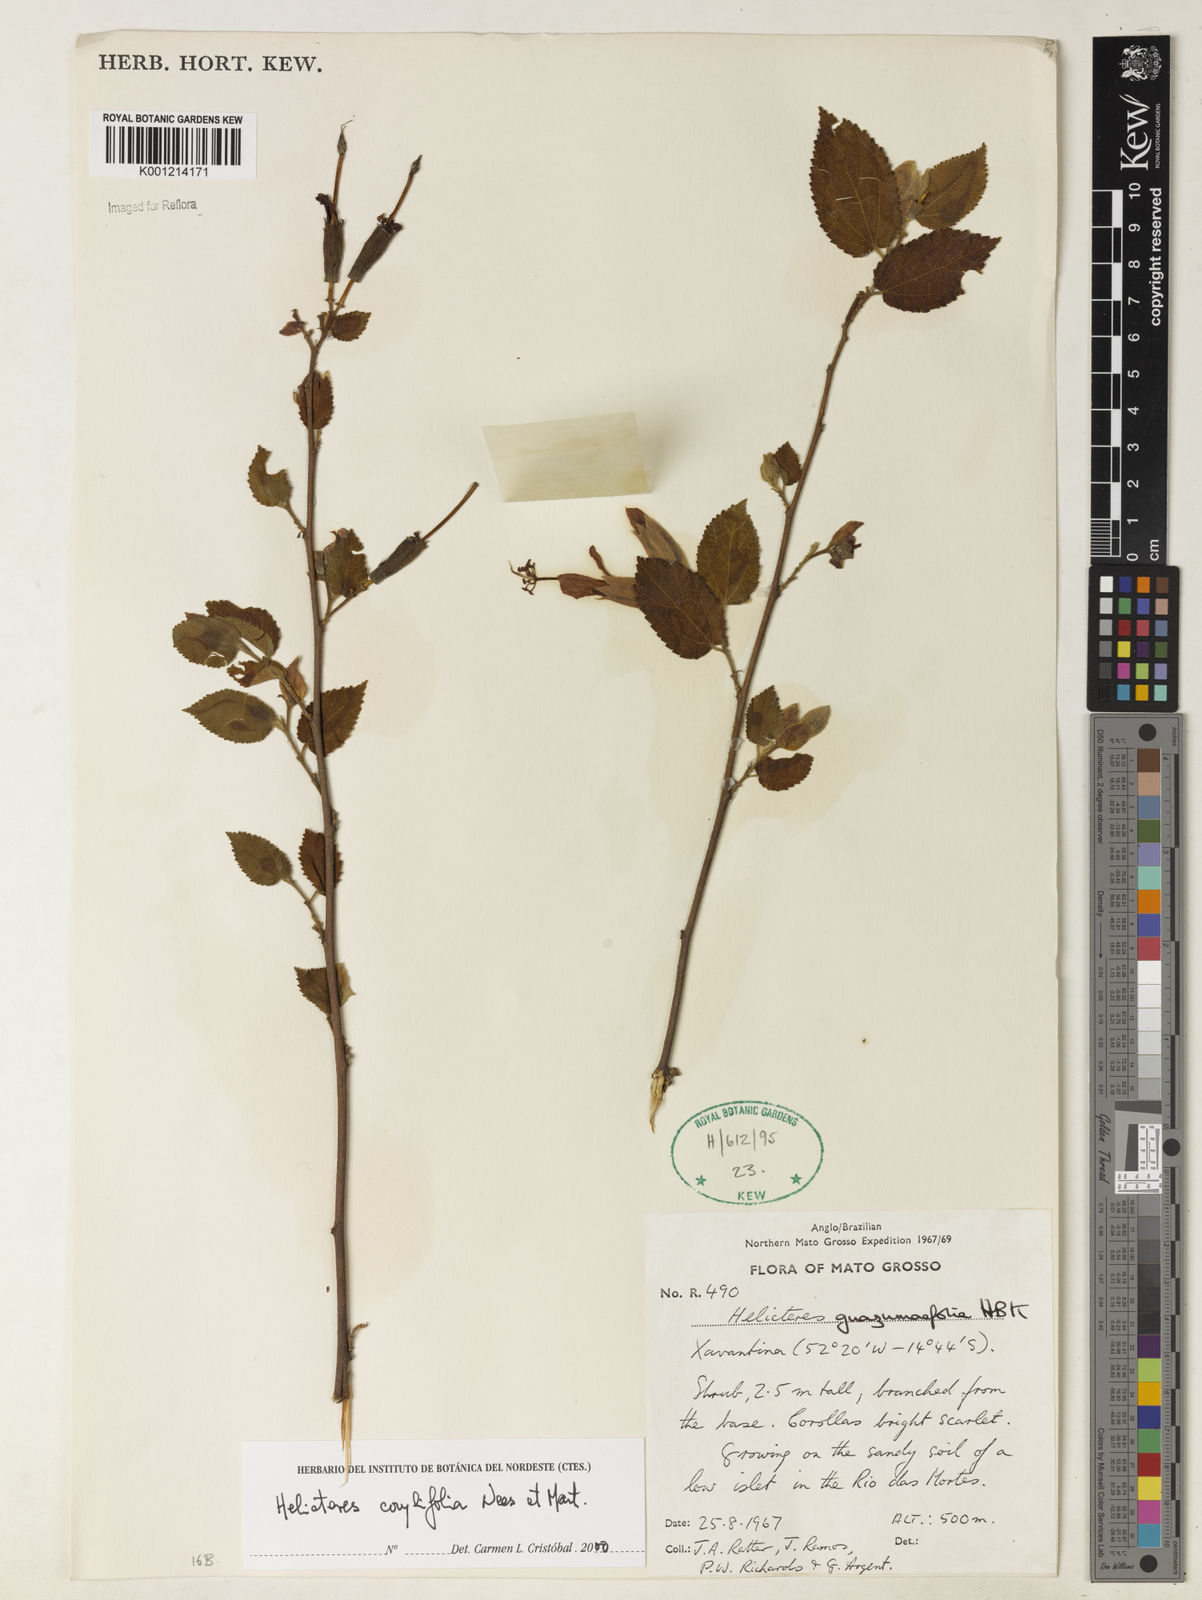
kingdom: Plantae
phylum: Tracheophyta
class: Magnoliopsida
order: Malvales
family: Malvaceae
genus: Helicteres
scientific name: Helicteres corylifolia
